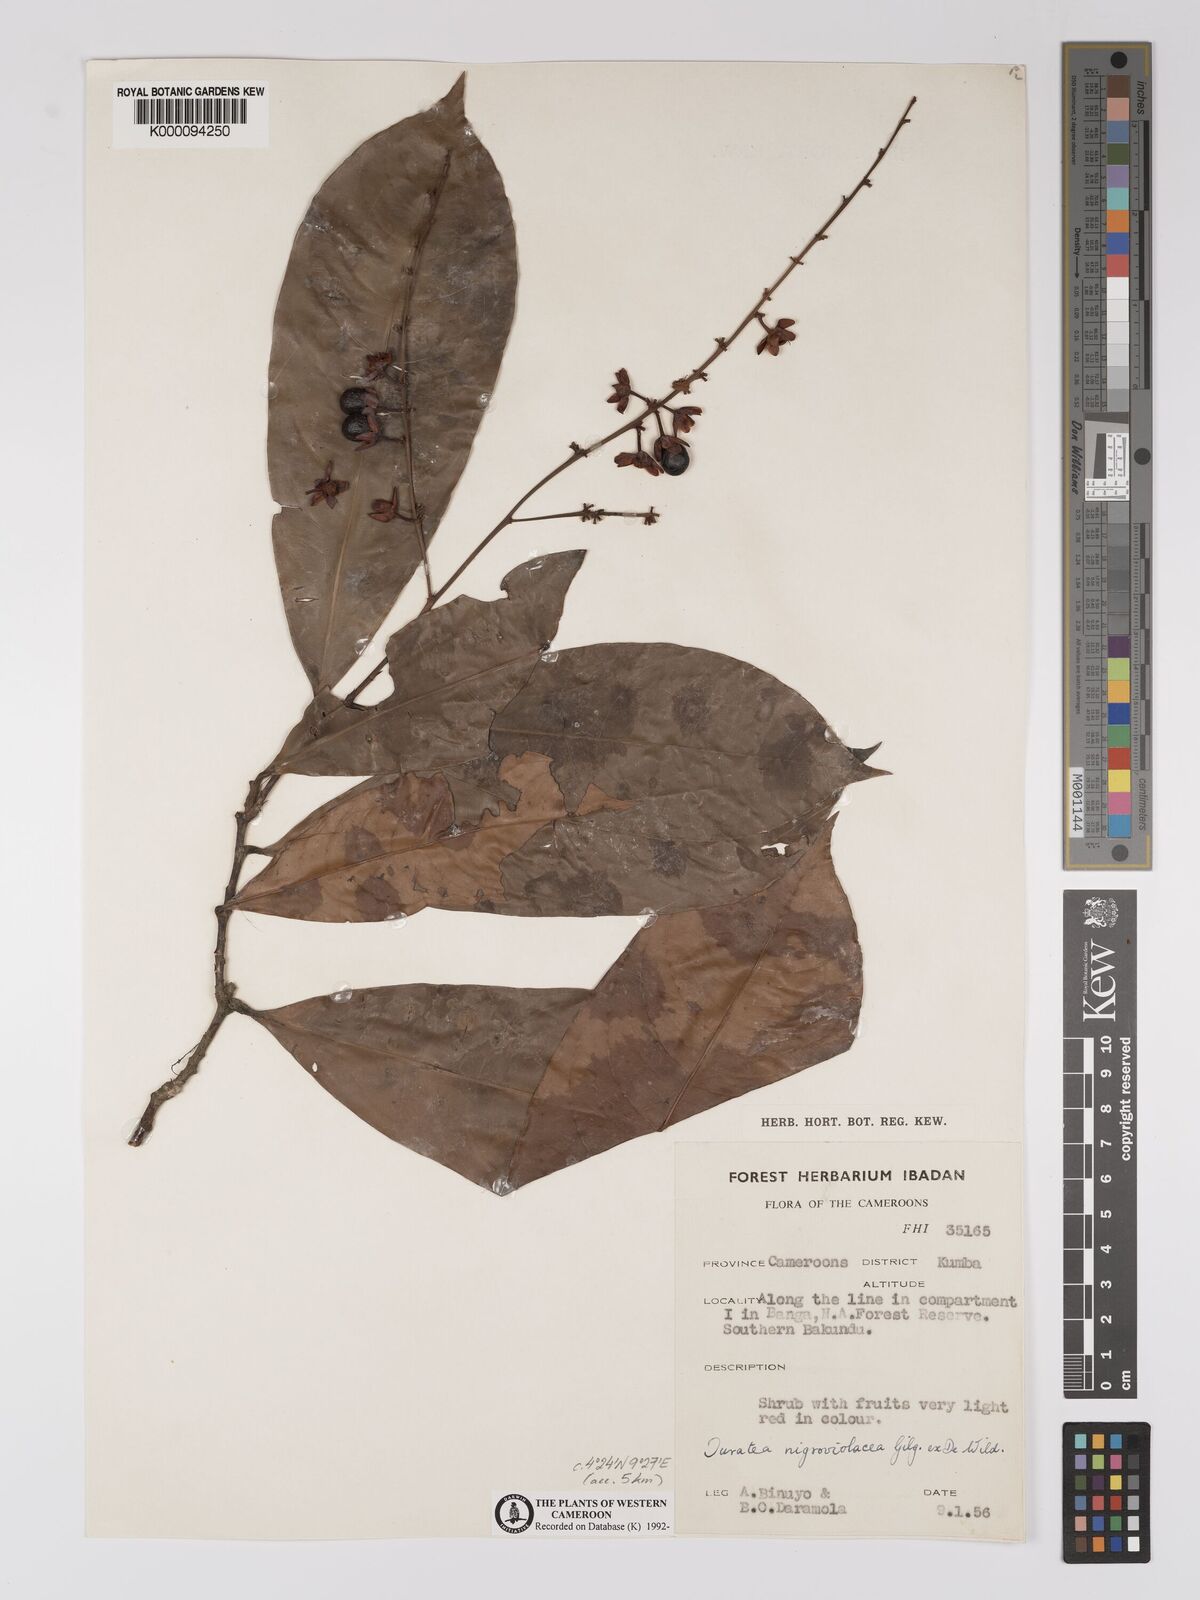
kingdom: Plantae
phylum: Tracheophyta
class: Magnoliopsida
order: Malpighiales
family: Ochnaceae
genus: Campylospermum
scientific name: Campylospermum calanthum
